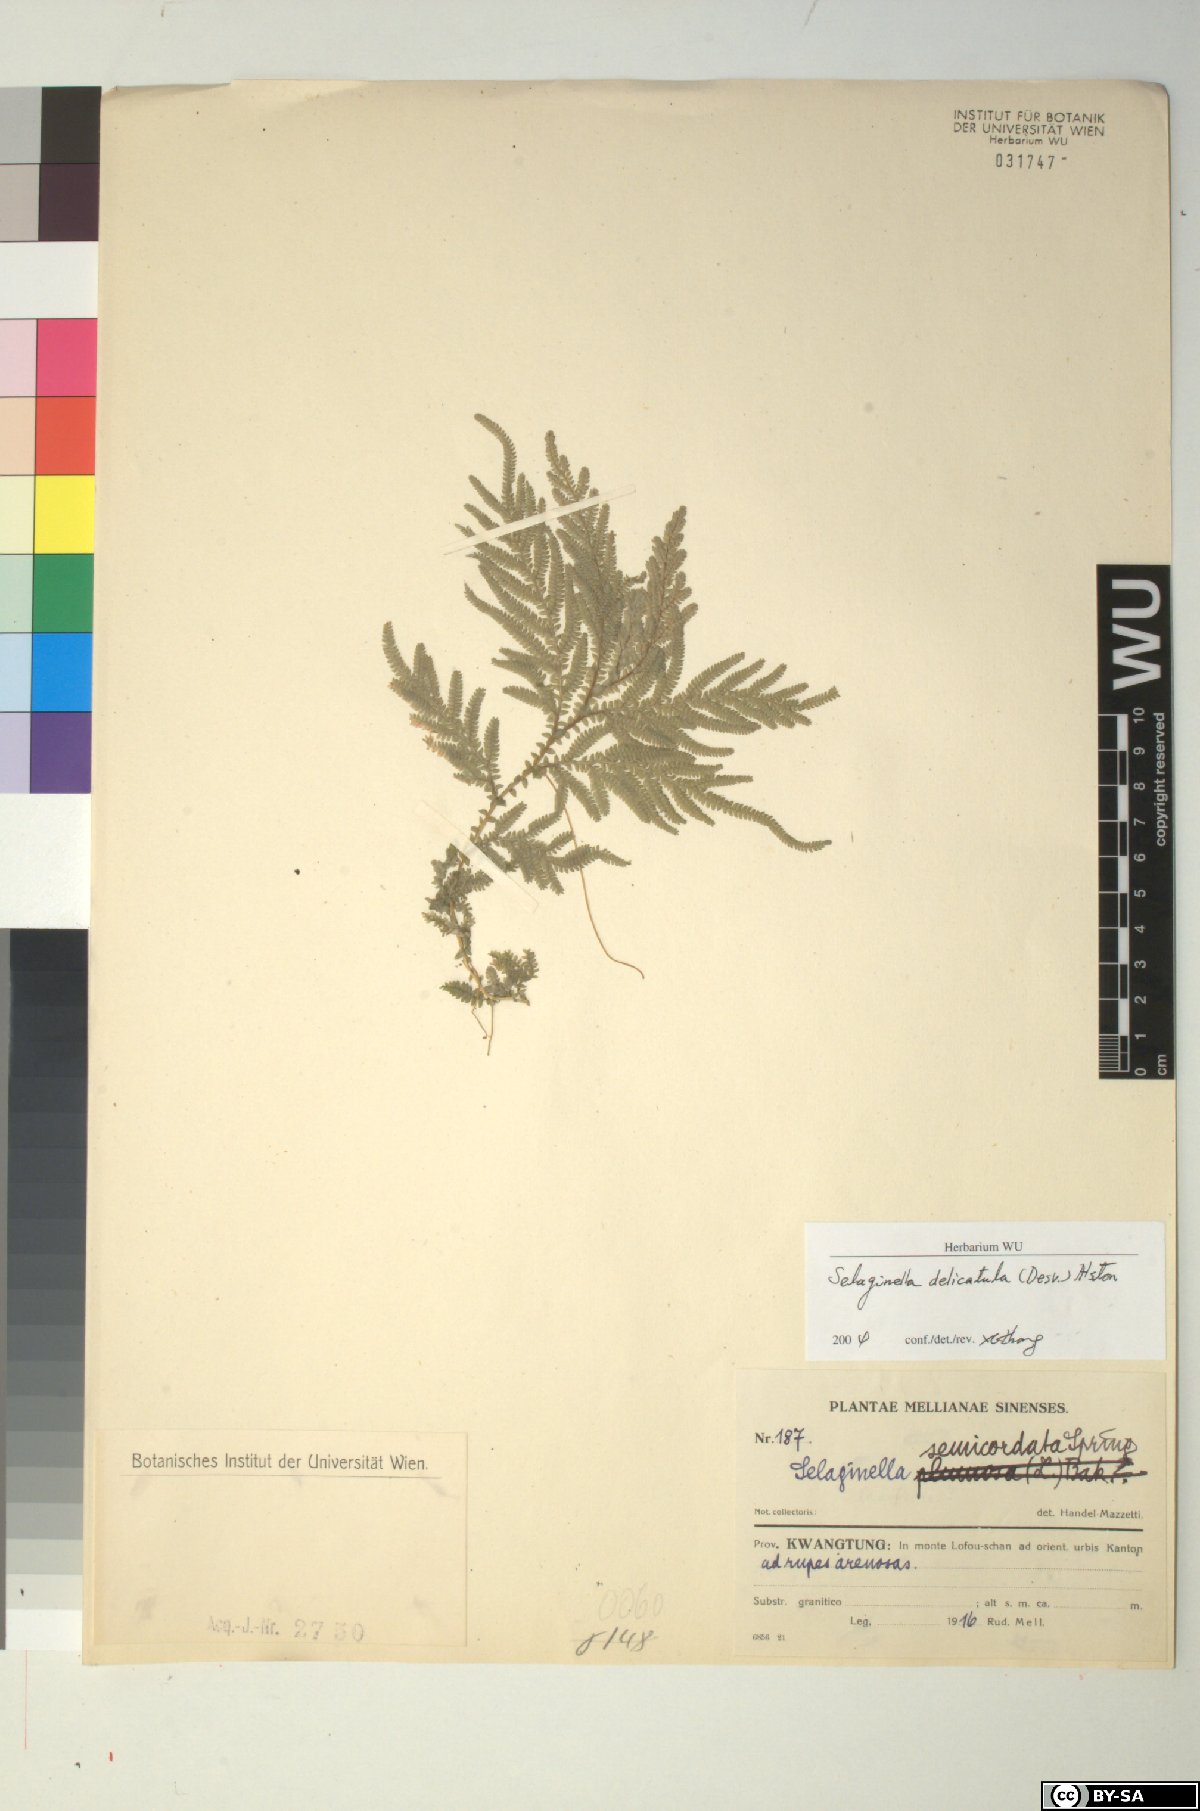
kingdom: Plantae
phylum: Tracheophyta
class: Lycopodiopsida
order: Selaginellales
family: Selaginellaceae
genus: Selaginella
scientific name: Selaginella delicatula
